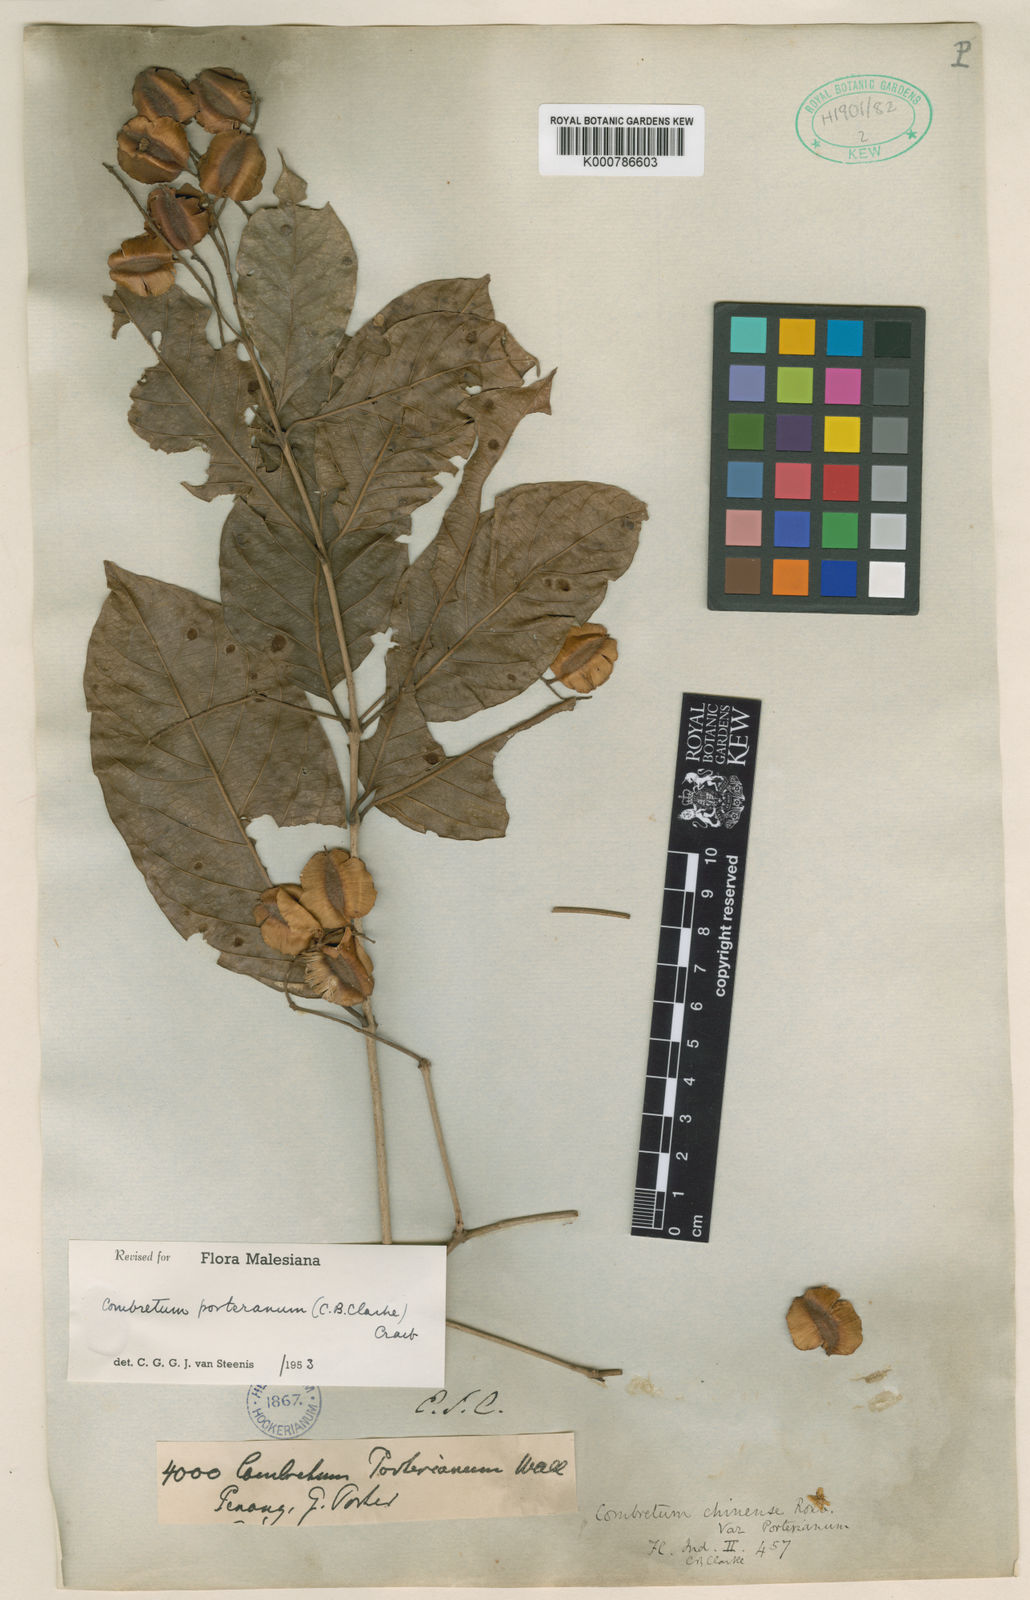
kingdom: Plantae
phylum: Tracheophyta
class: Magnoliopsida
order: Myrtales
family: Combretaceae
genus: Combretum
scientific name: Combretum
